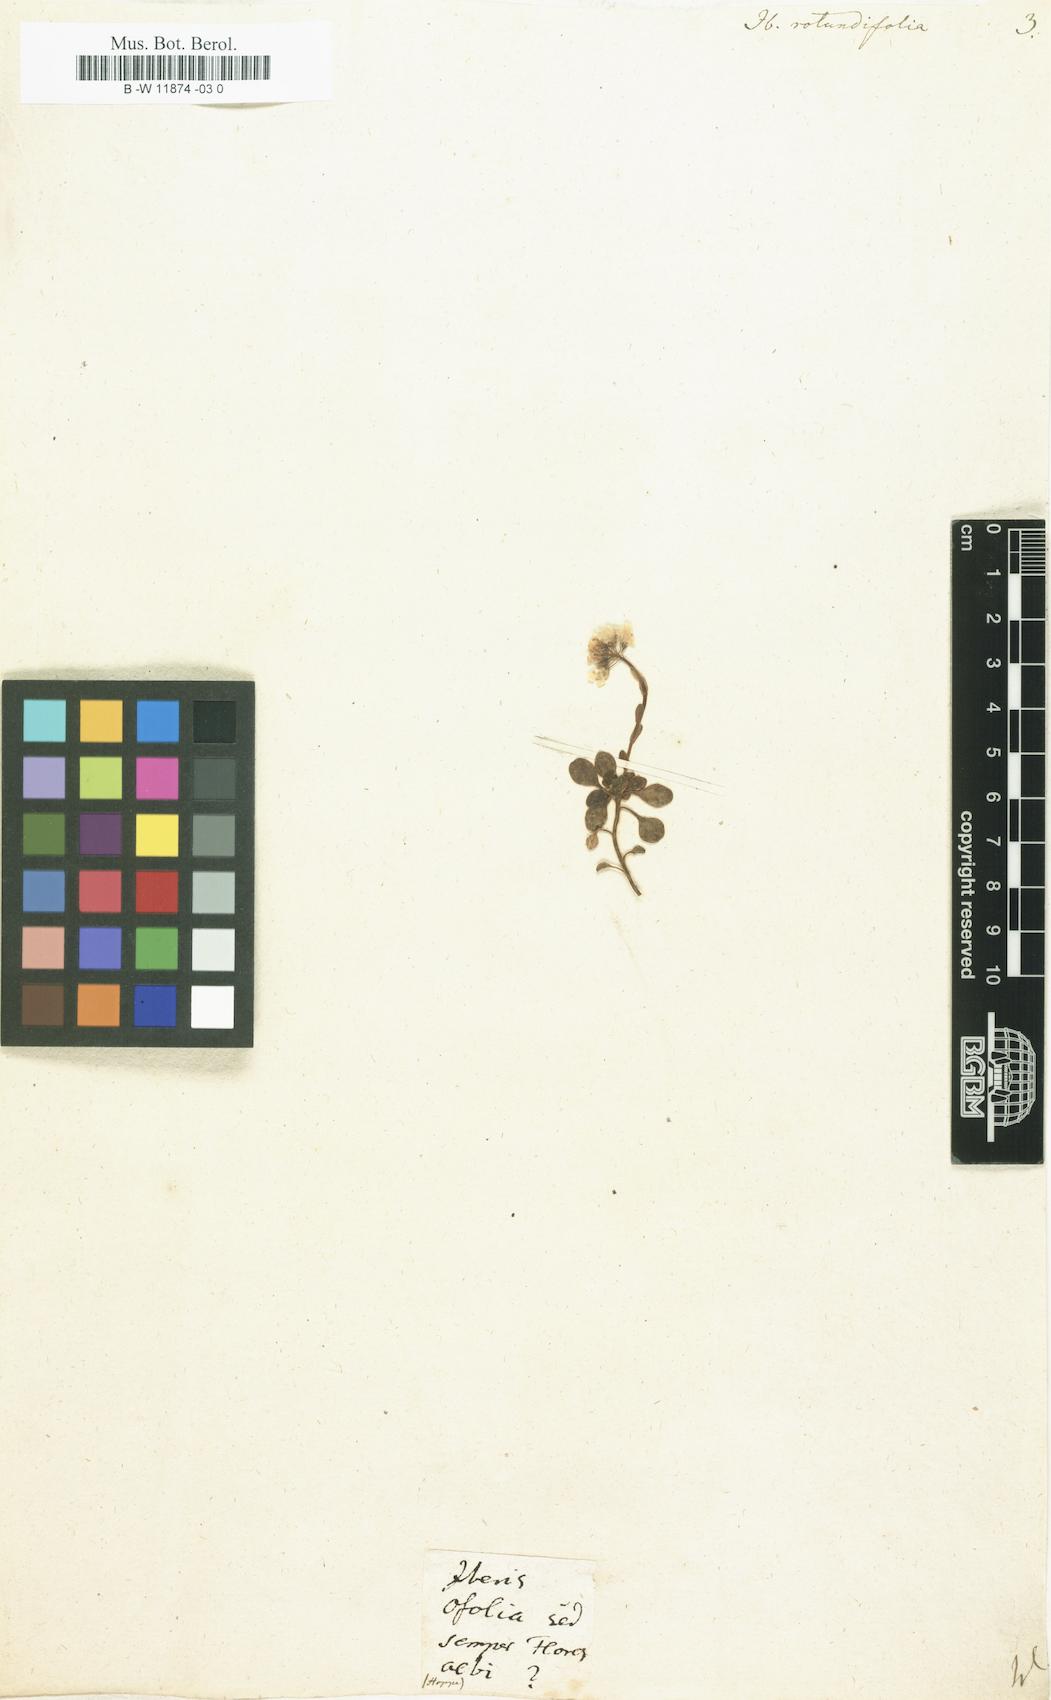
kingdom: Plantae
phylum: Tracheophyta
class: Magnoliopsida
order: Brassicales
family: Brassicaceae
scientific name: Brassicaceae
